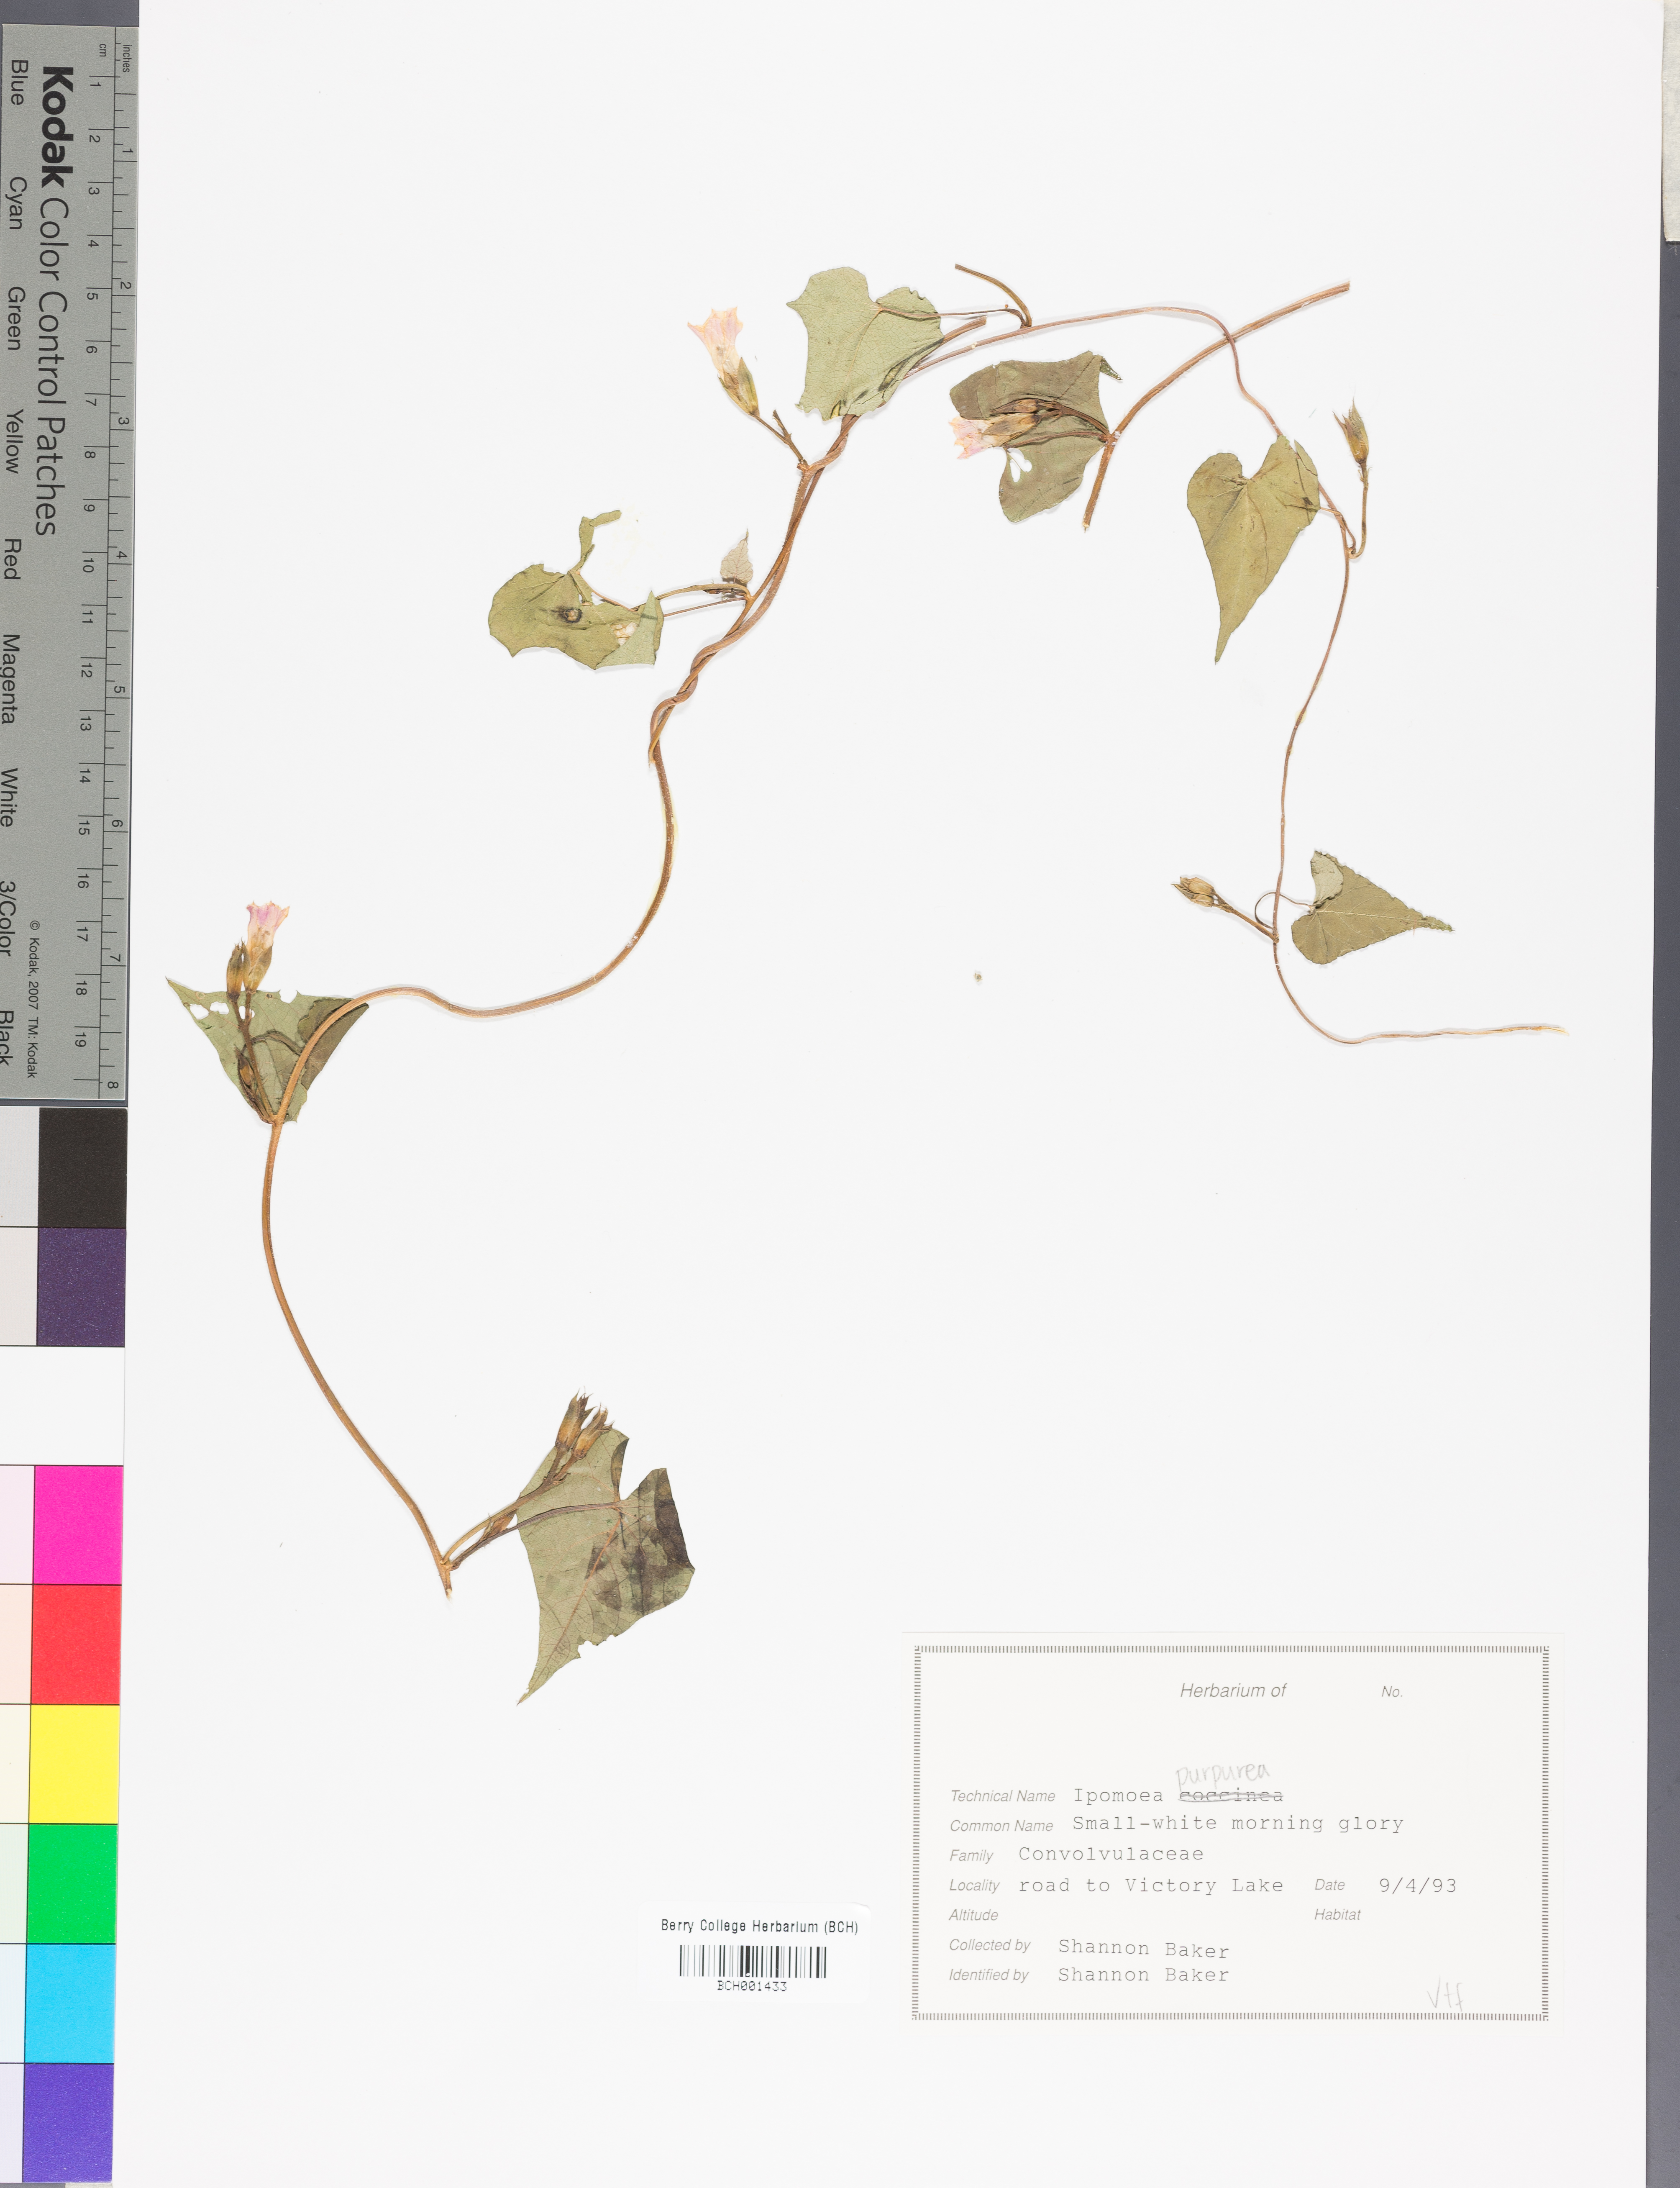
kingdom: Plantae
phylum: Tracheophyta
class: Magnoliopsida
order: Solanales
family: Convolvulaceae
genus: Ipomoea
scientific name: Ipomoea purpurea
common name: Common morning-glory
